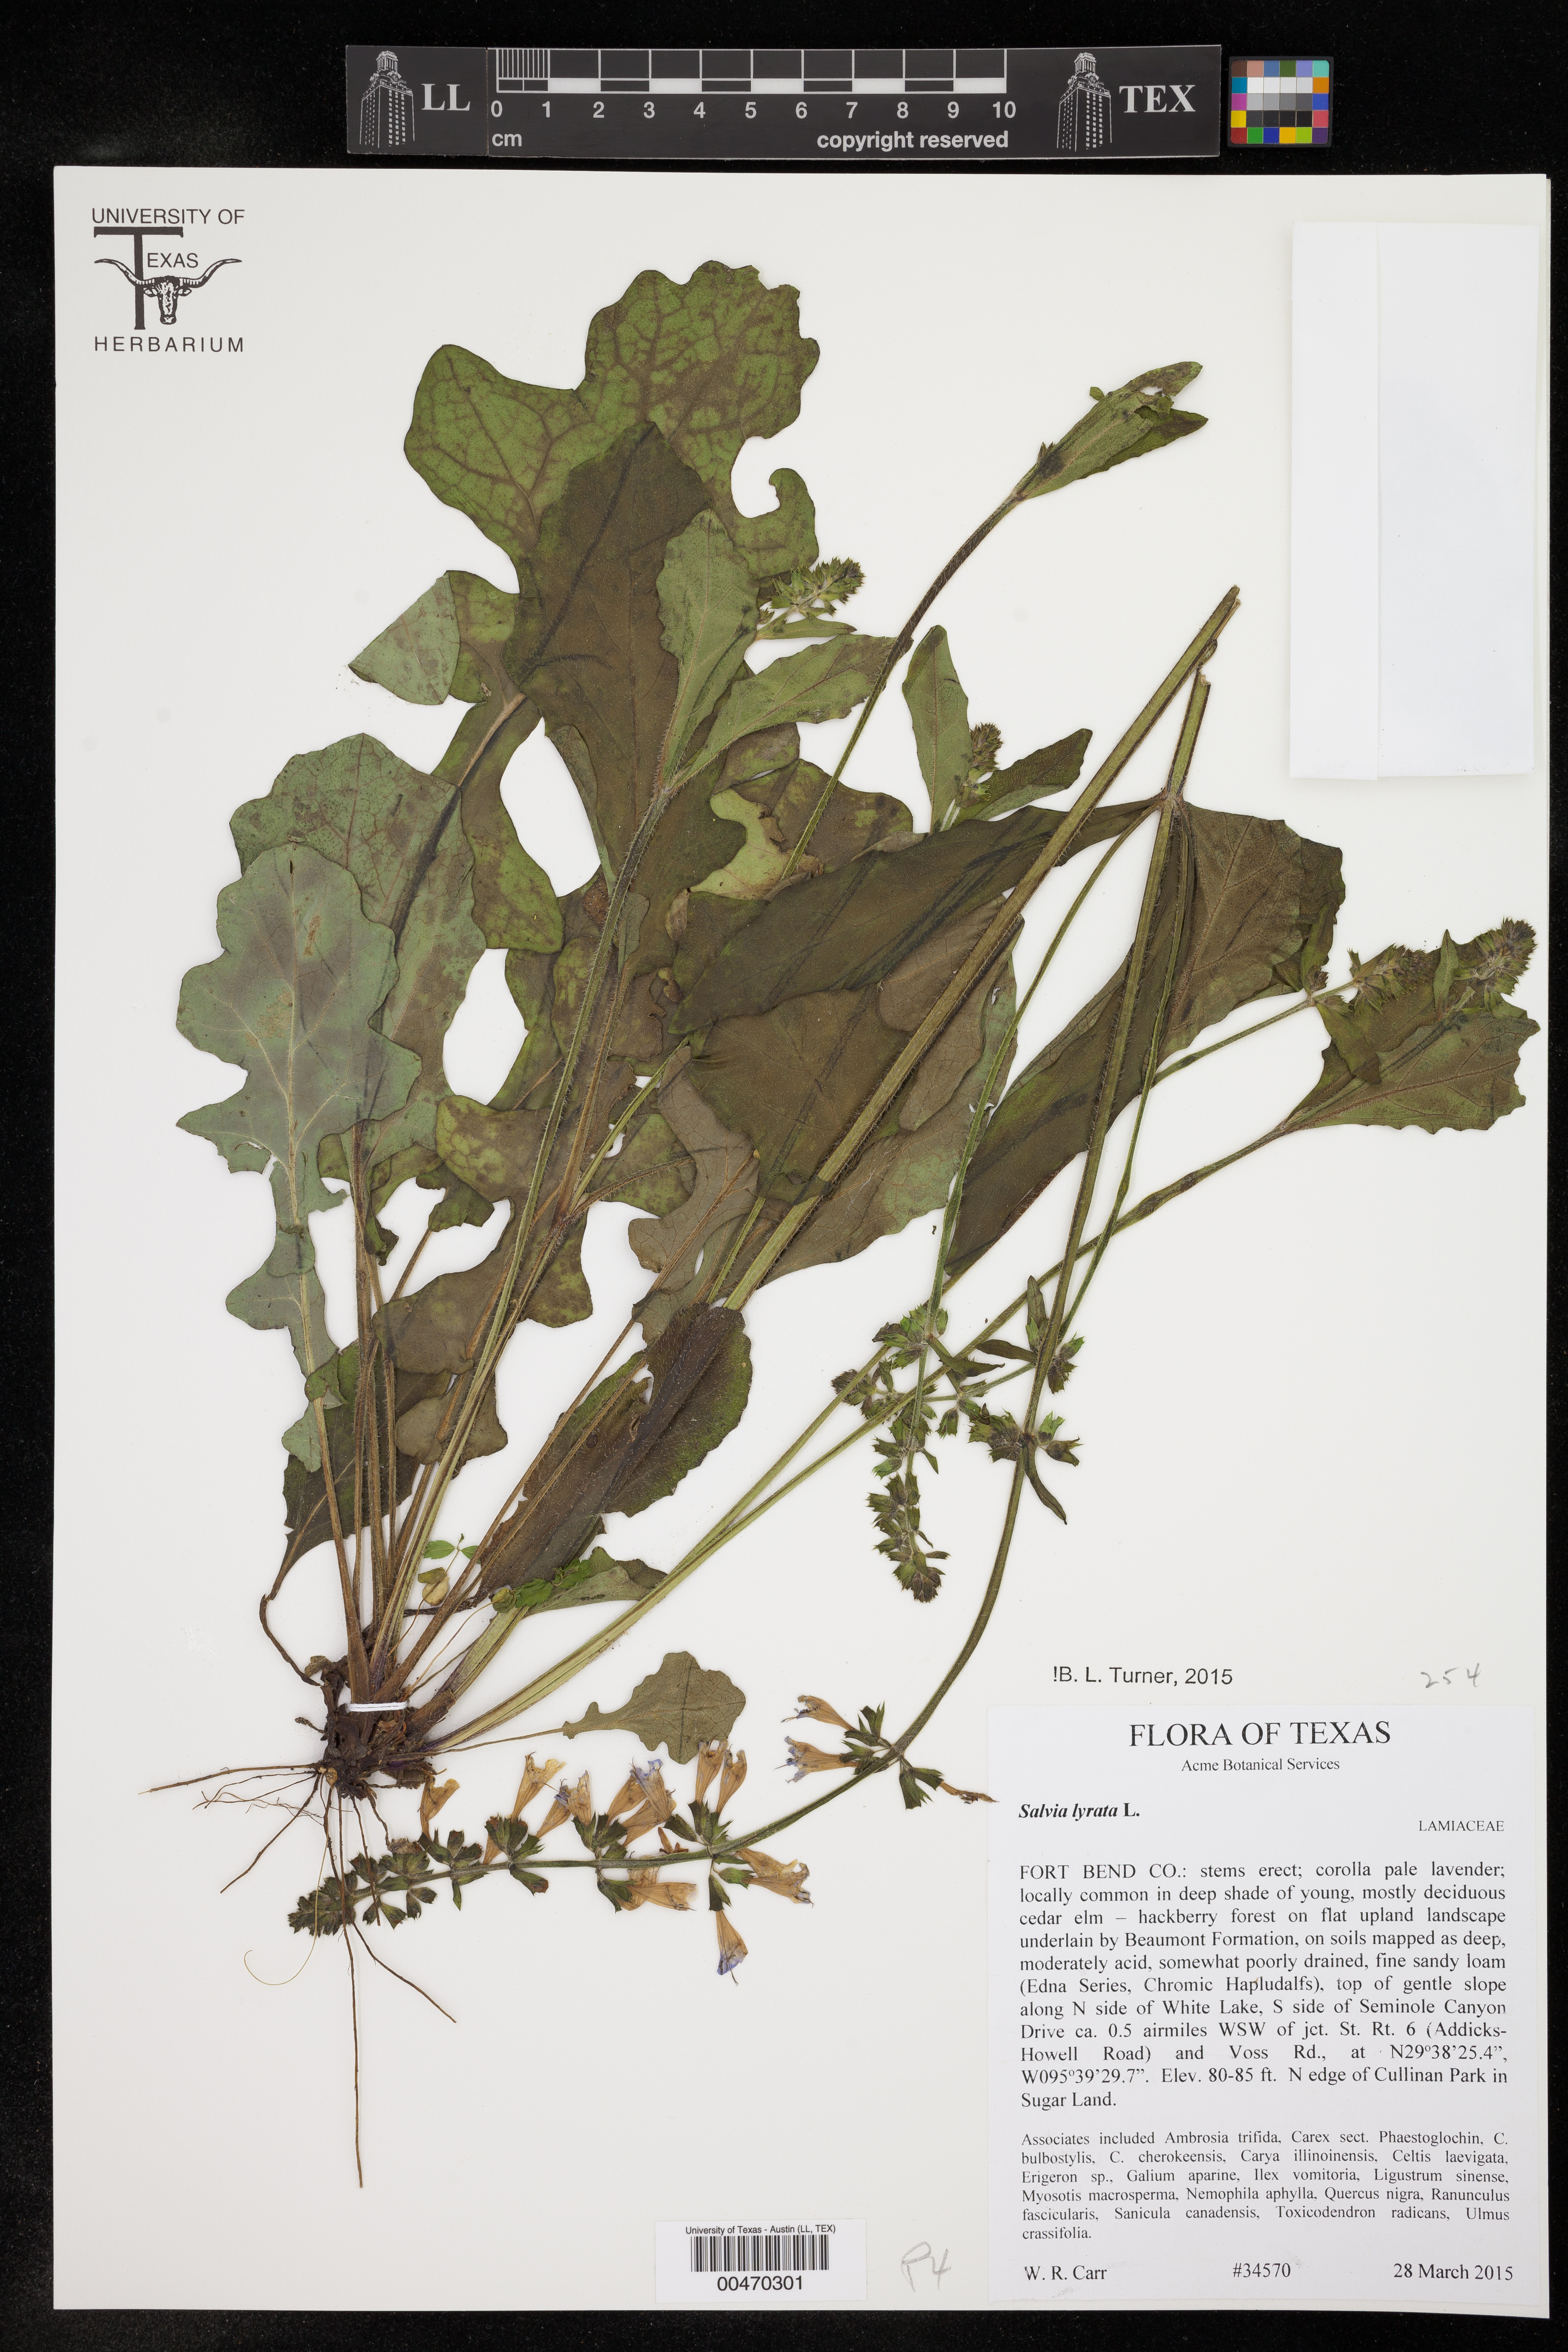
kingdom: Plantae
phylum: Tracheophyta
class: Magnoliopsida
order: Lamiales
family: Lamiaceae
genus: Salvia
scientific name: Salvia lyrata
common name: Cancerweed
